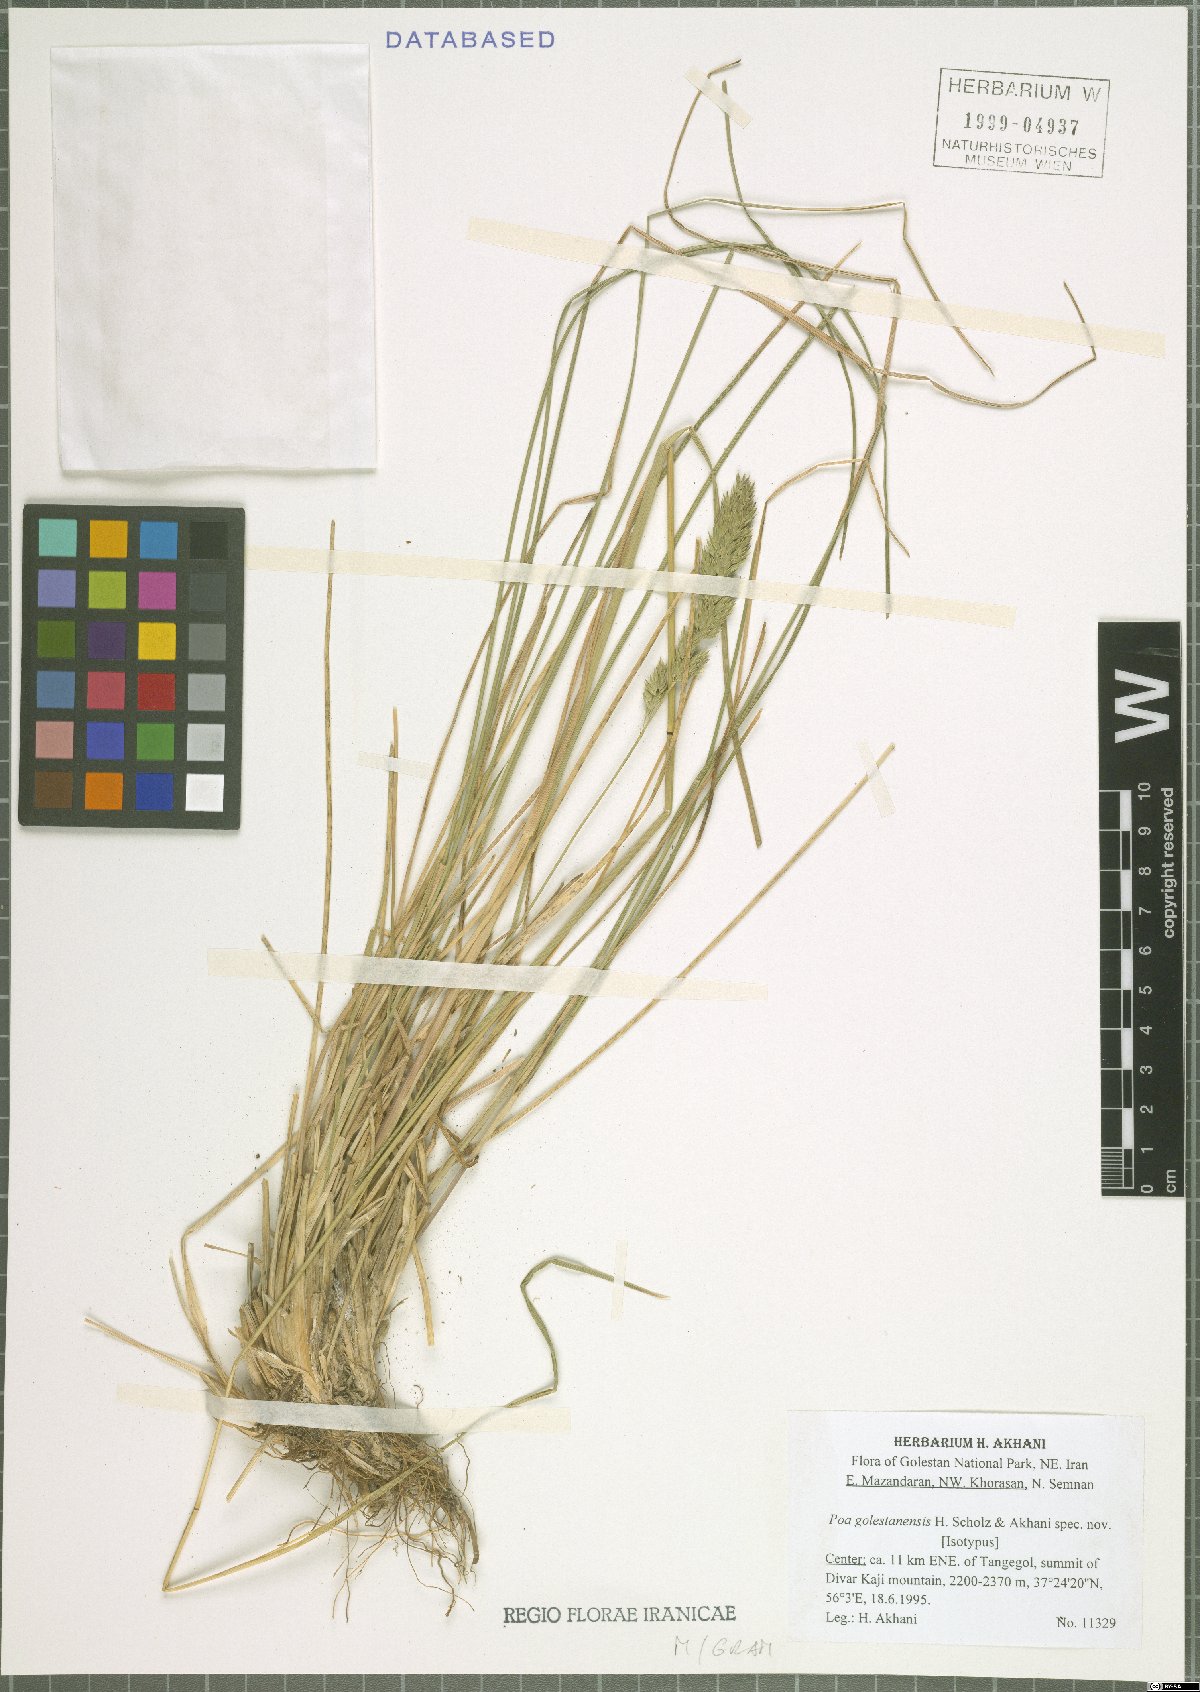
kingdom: Plantae
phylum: Tracheophyta
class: Liliopsida
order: Poales
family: Poaceae
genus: Poa
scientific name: Poa golestanensis
